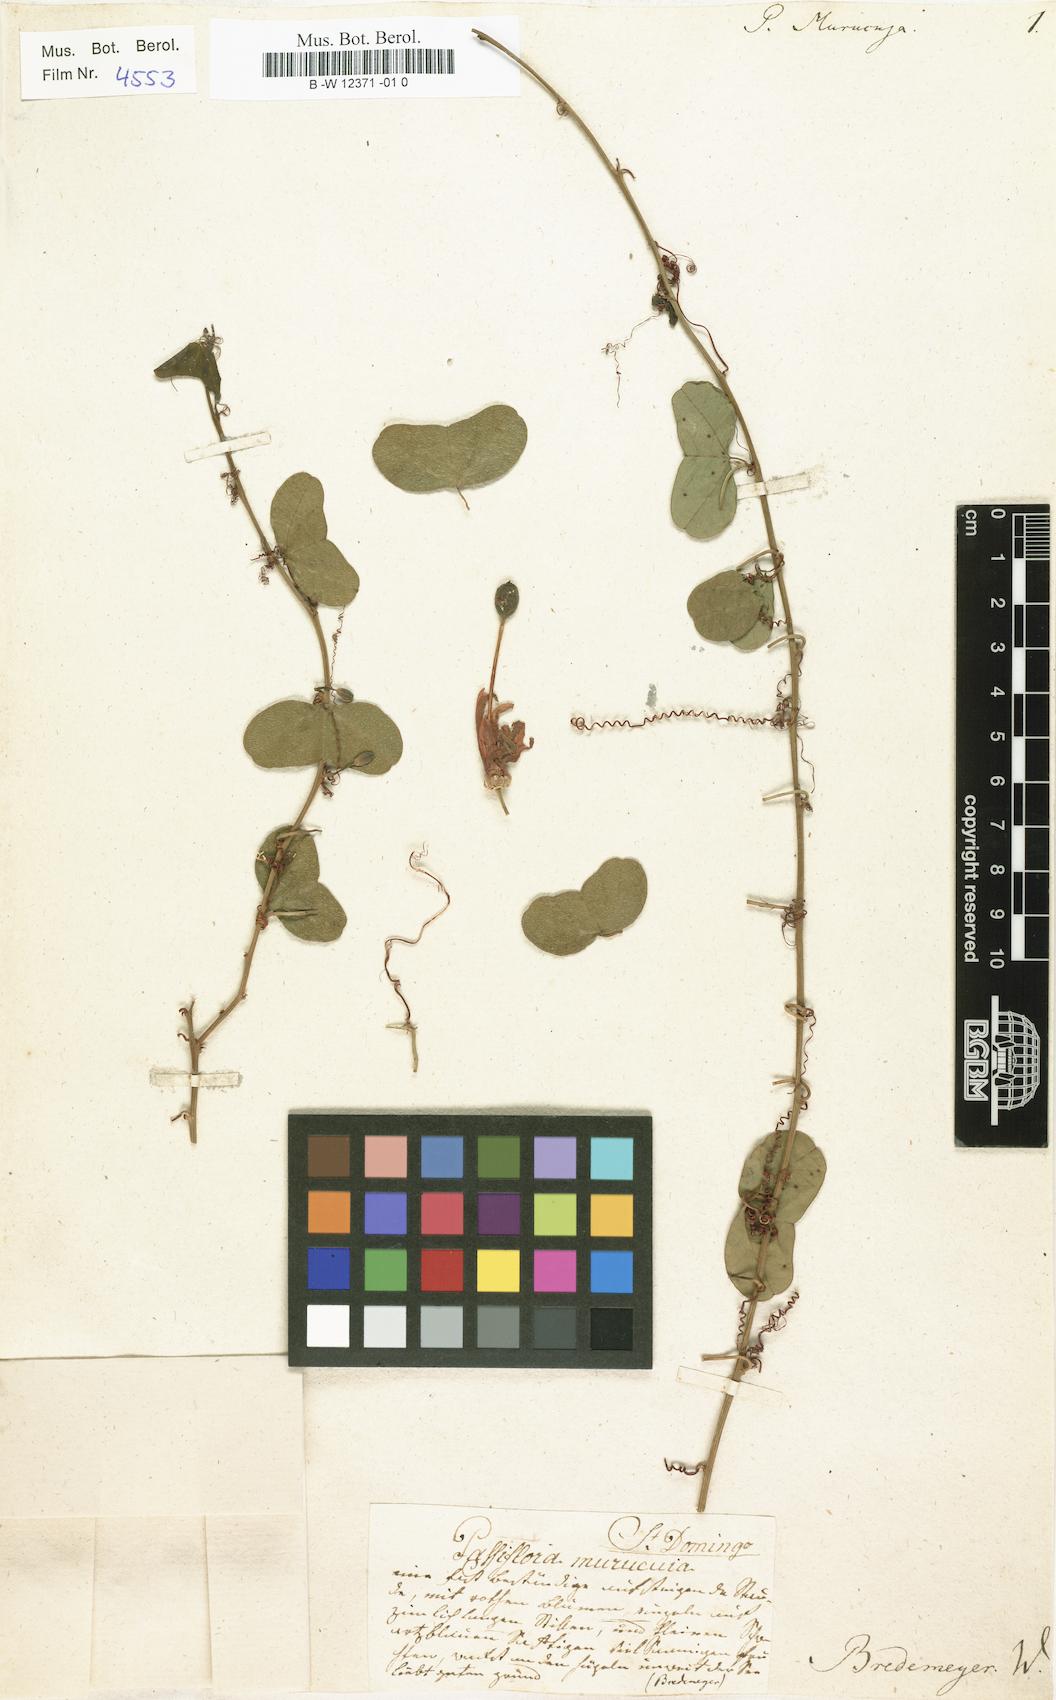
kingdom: Plantae
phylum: Tracheophyta
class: Magnoliopsida
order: Malpighiales
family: Passifloraceae
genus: Passiflora
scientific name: Passiflora murucuja
